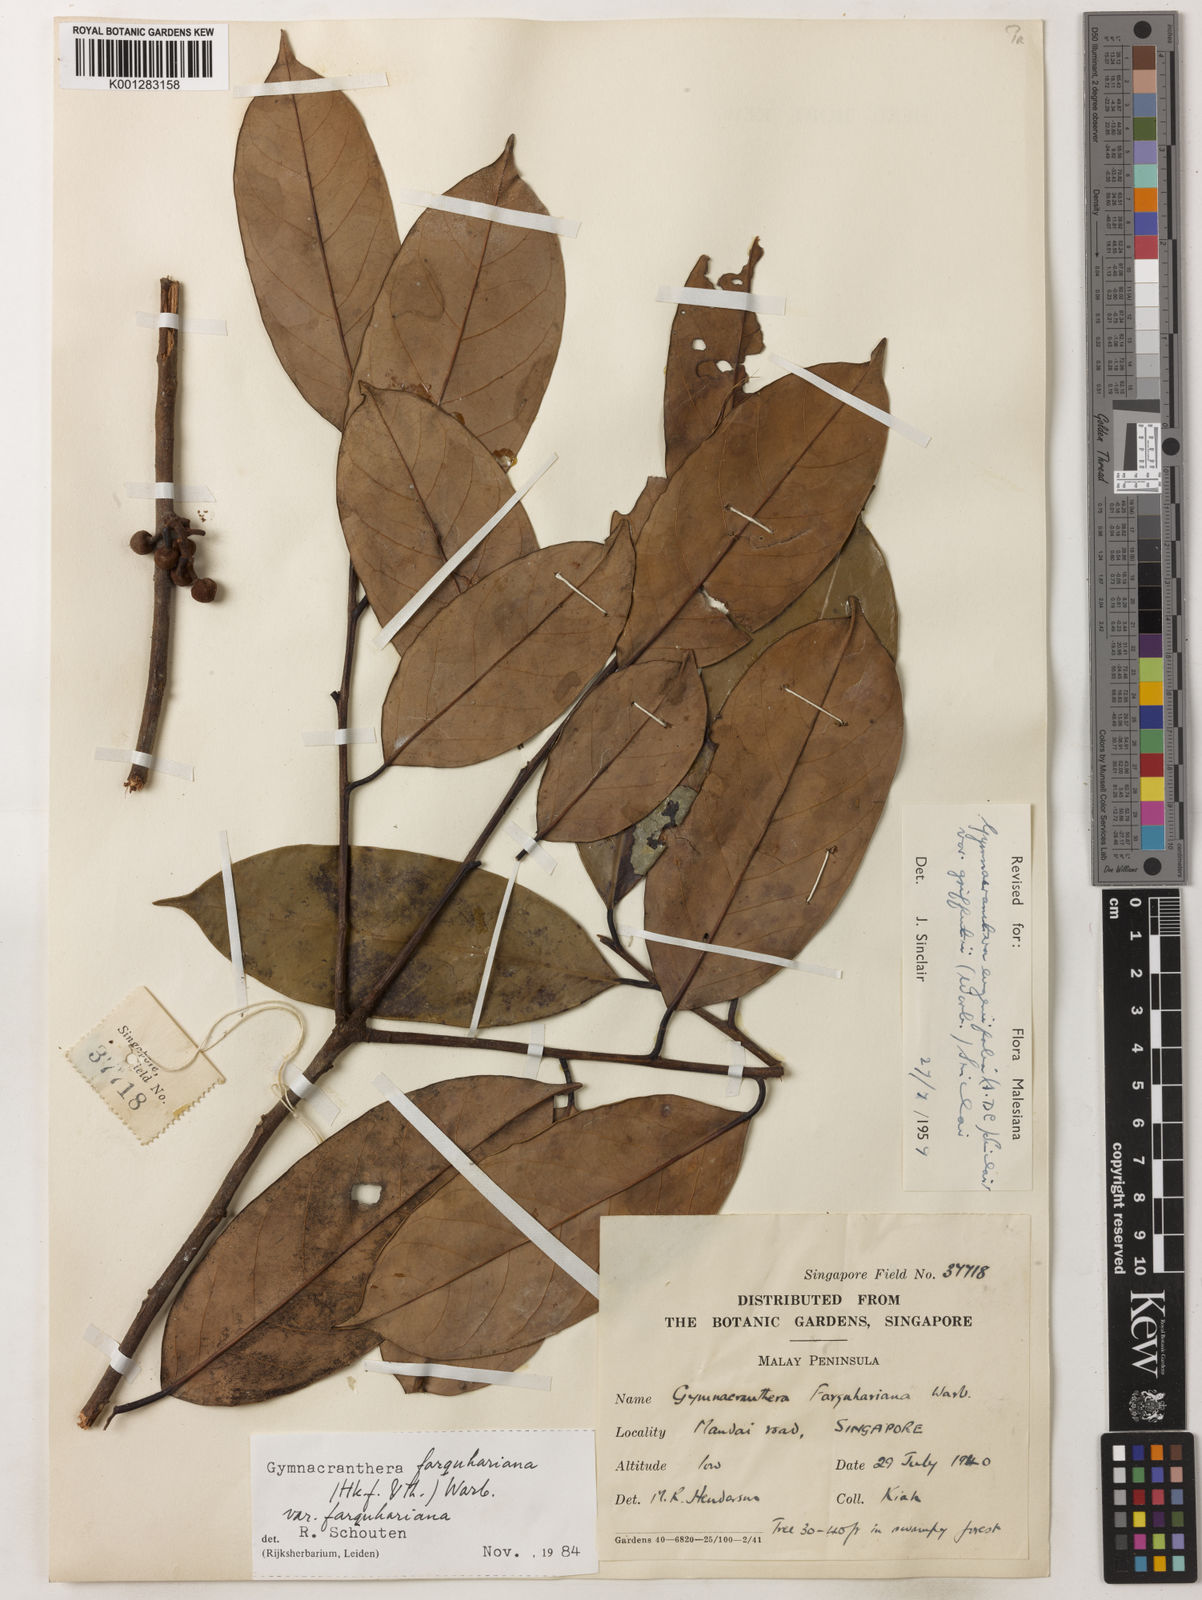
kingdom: Plantae
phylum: Tracheophyta
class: Magnoliopsida
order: Magnoliales
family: Myristicaceae
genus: Gymnacranthera
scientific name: Gymnacranthera farquhariana
